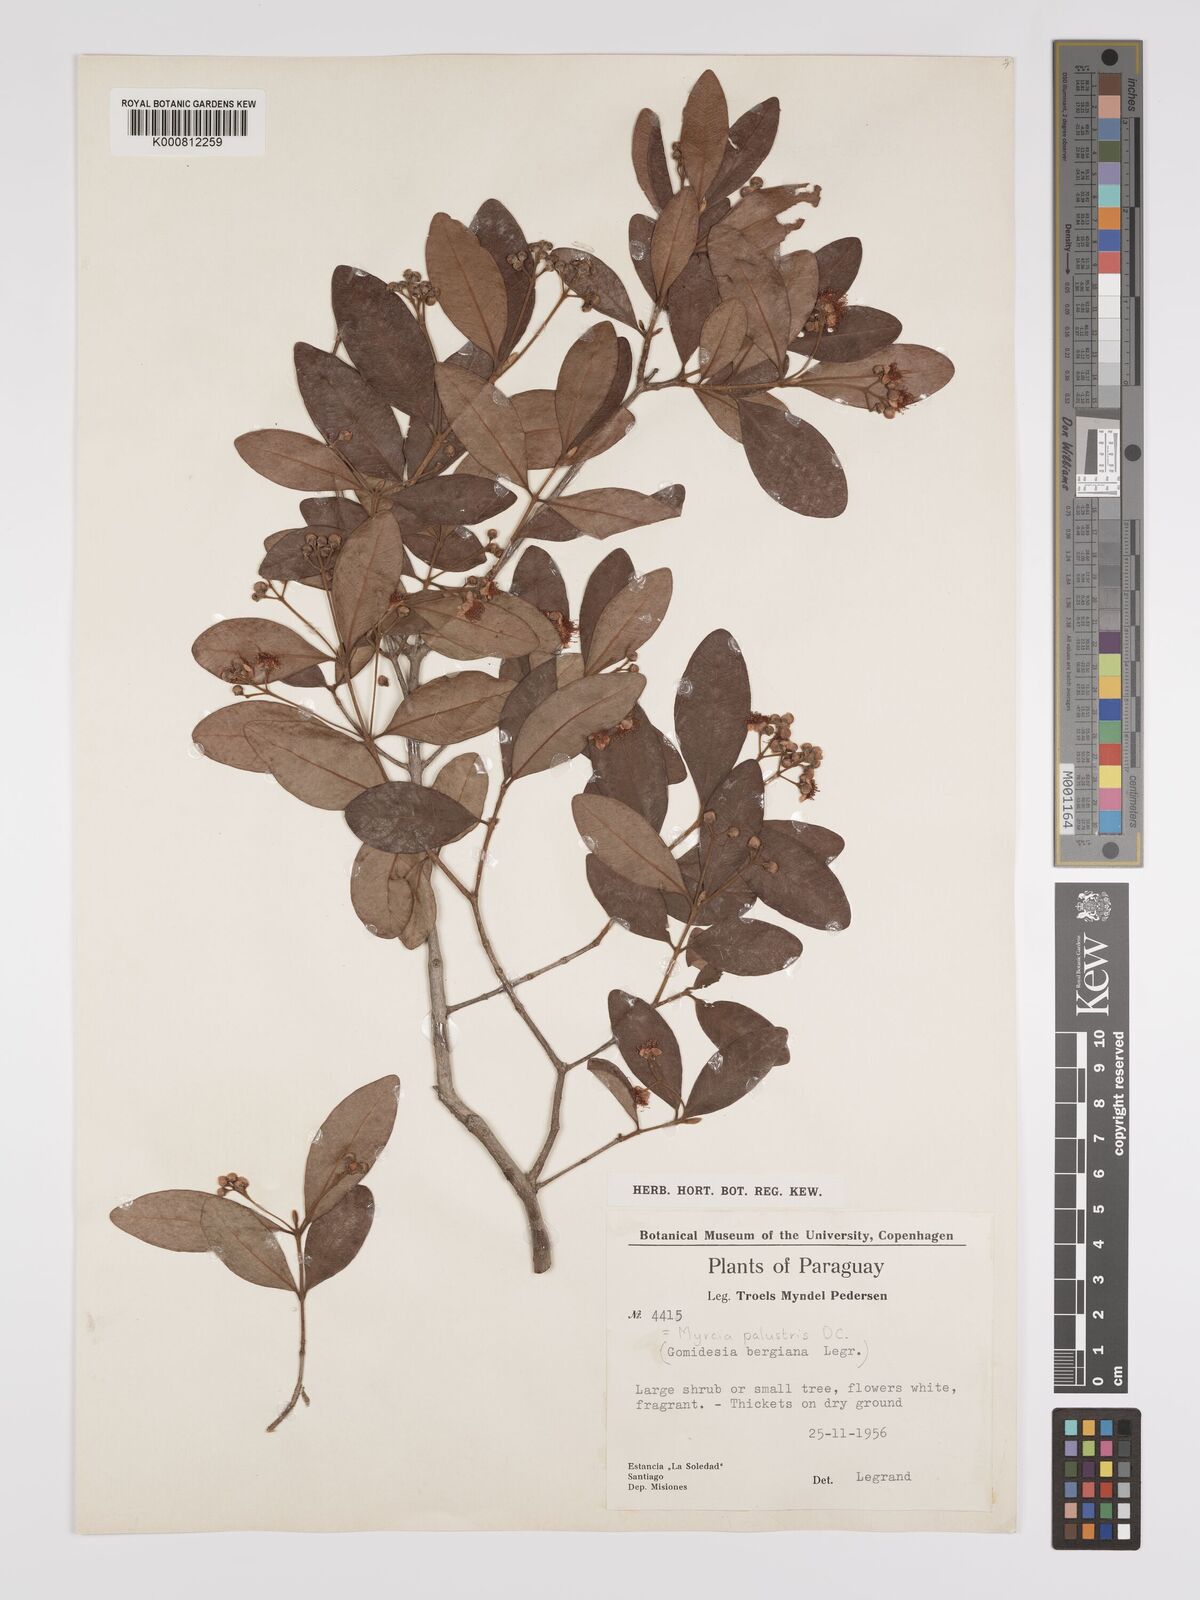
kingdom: Plantae
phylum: Tracheophyta
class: Magnoliopsida
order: Myrtales
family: Myrtaceae
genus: Myrcia
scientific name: Myrcia palustris
